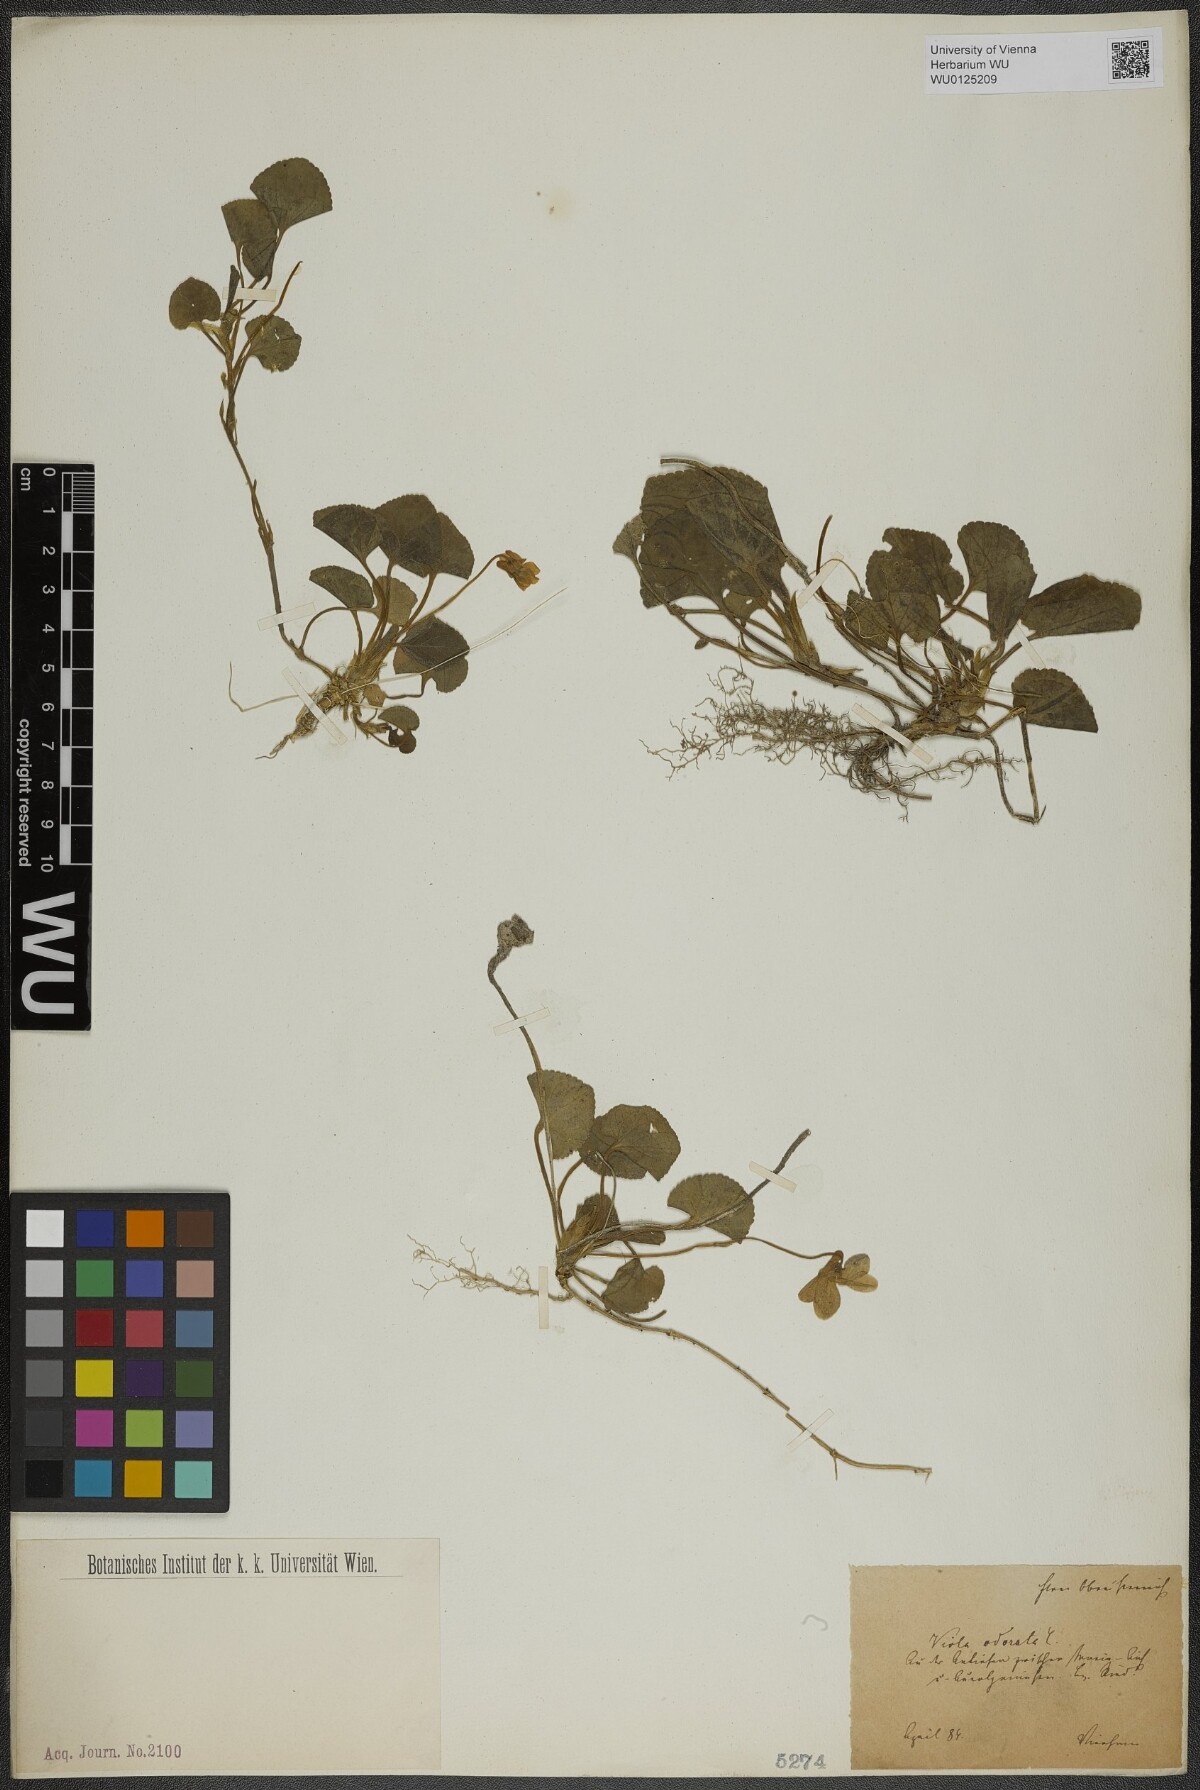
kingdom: Plantae
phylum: Tracheophyta
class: Magnoliopsida
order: Malpighiales
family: Violaceae
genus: Viola
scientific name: Viola odorata
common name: Sweet violet
